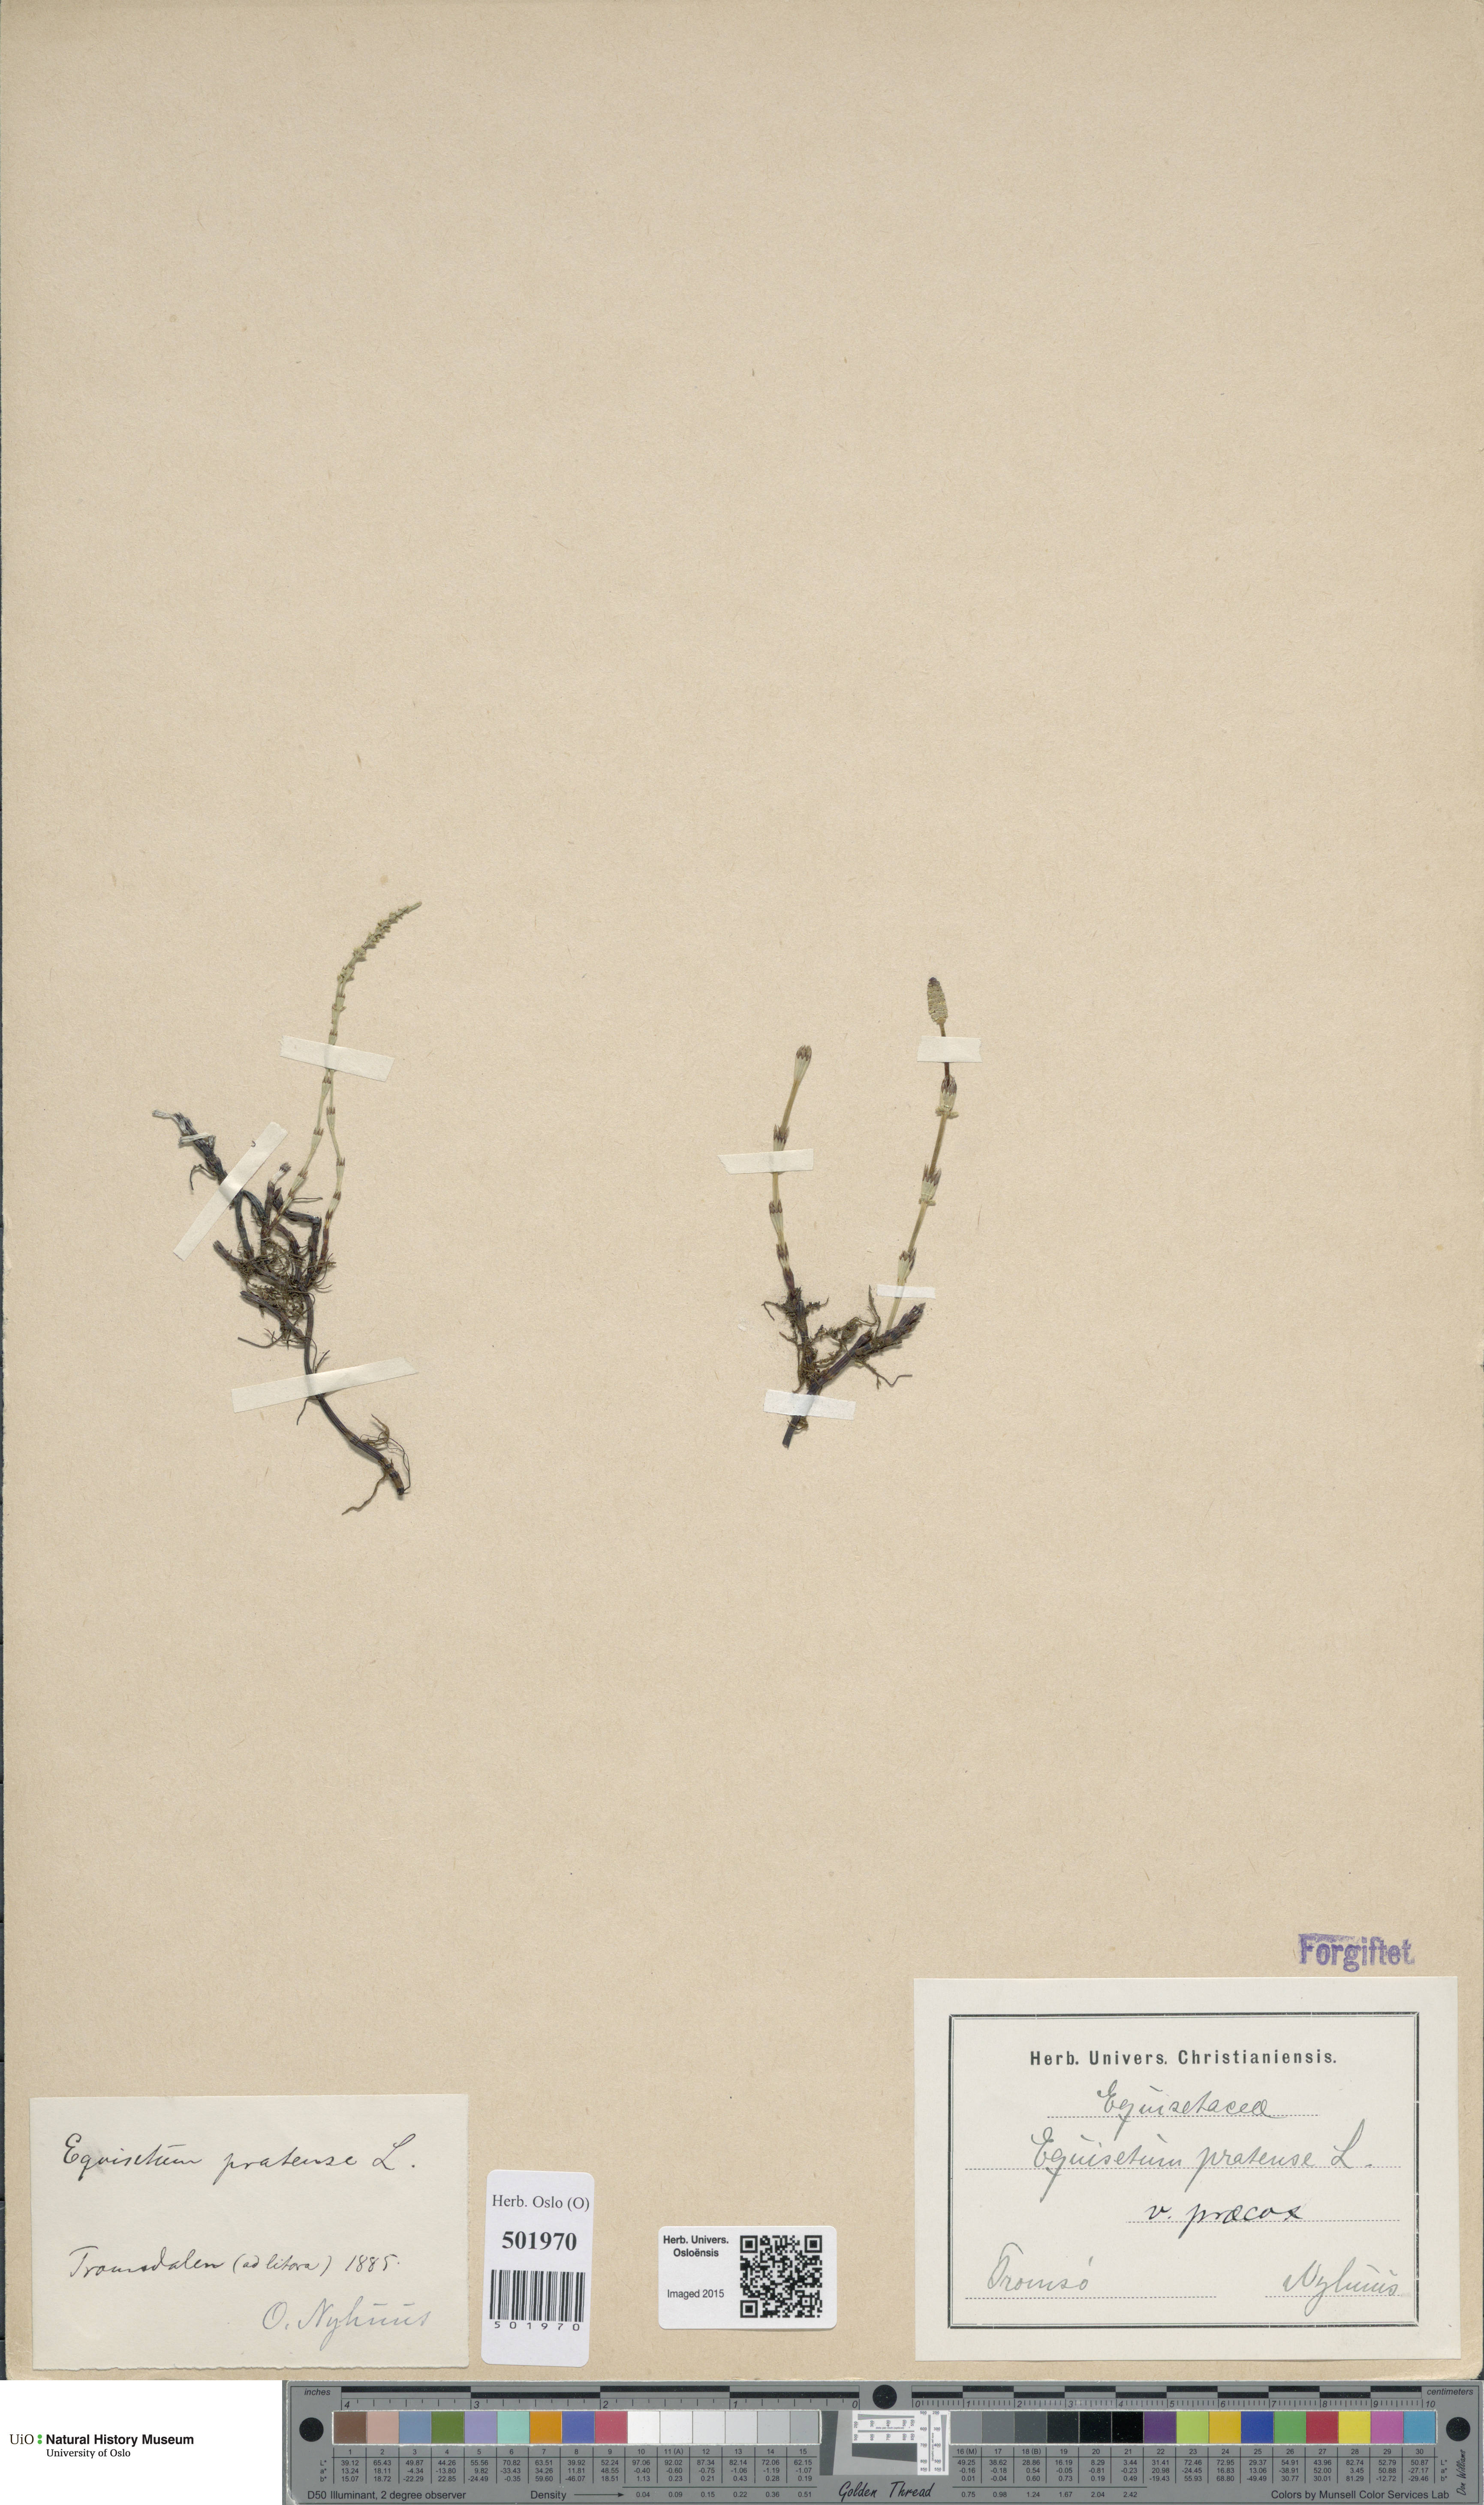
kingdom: Plantae
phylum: Tracheophyta
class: Polypodiopsida
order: Equisetales
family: Equisetaceae
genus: Equisetum
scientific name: Equisetum pratense
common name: Meadow horsetail
